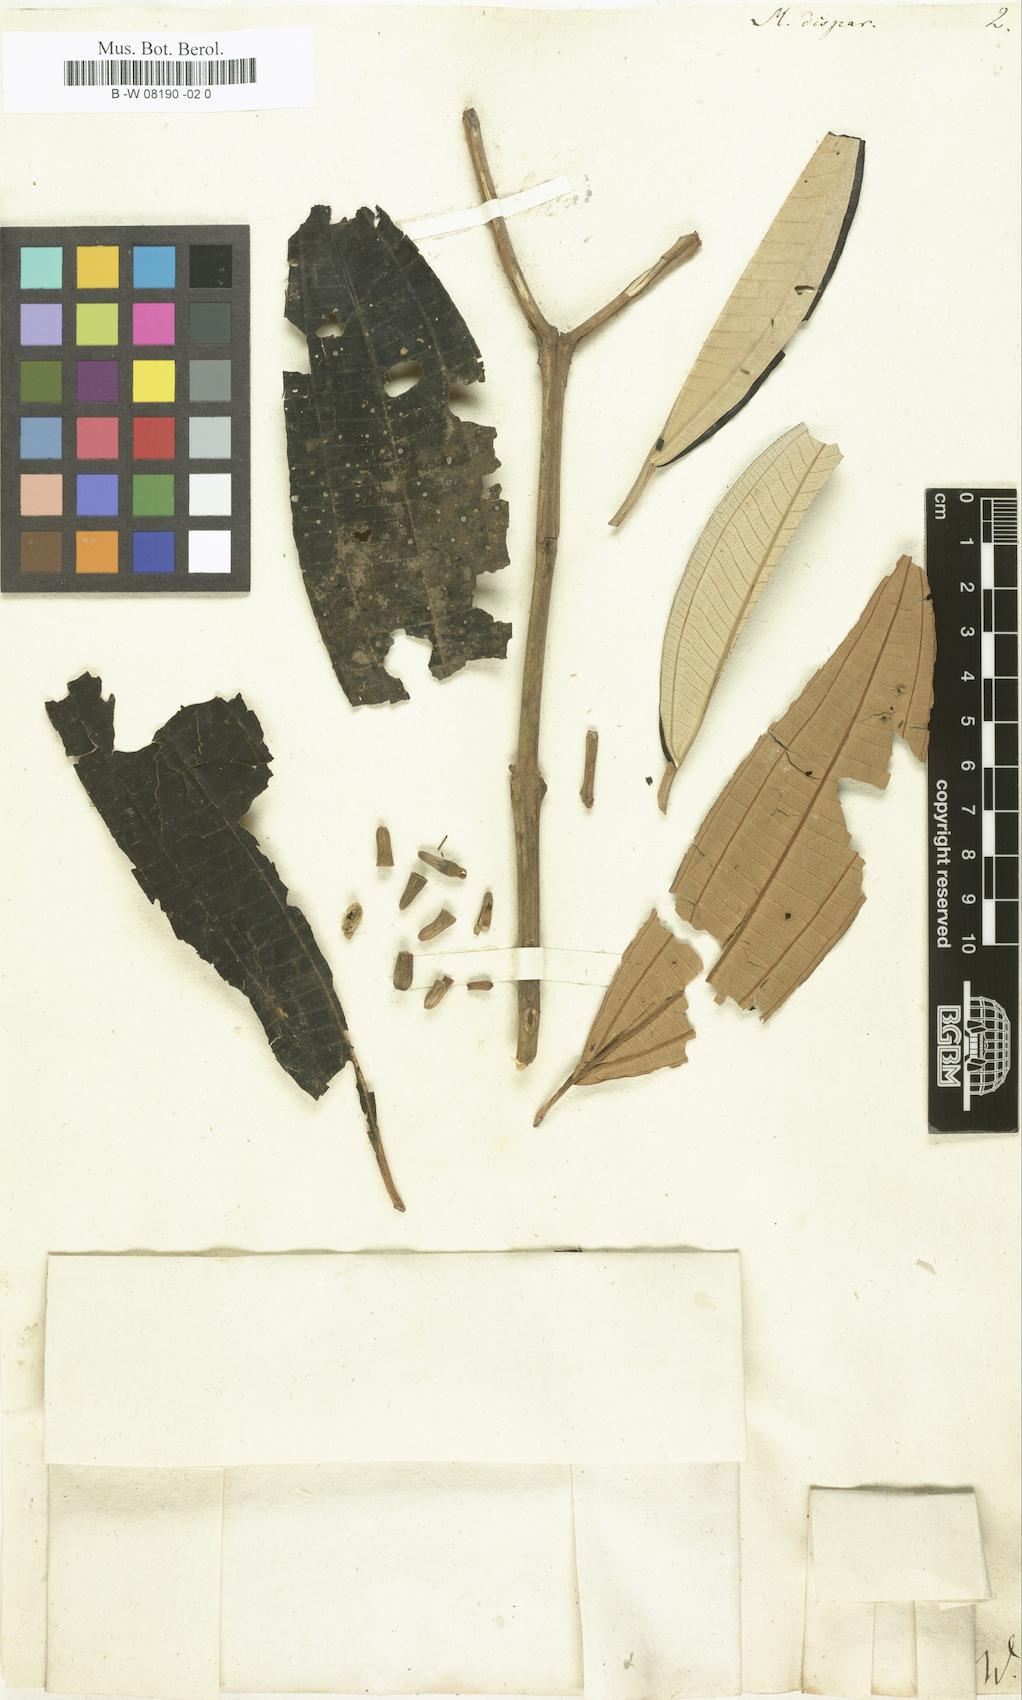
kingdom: Plantae
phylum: Tracheophyta
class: Magnoliopsida
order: Myrtales
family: Melastomataceae
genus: Melastoma
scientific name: Melastoma
